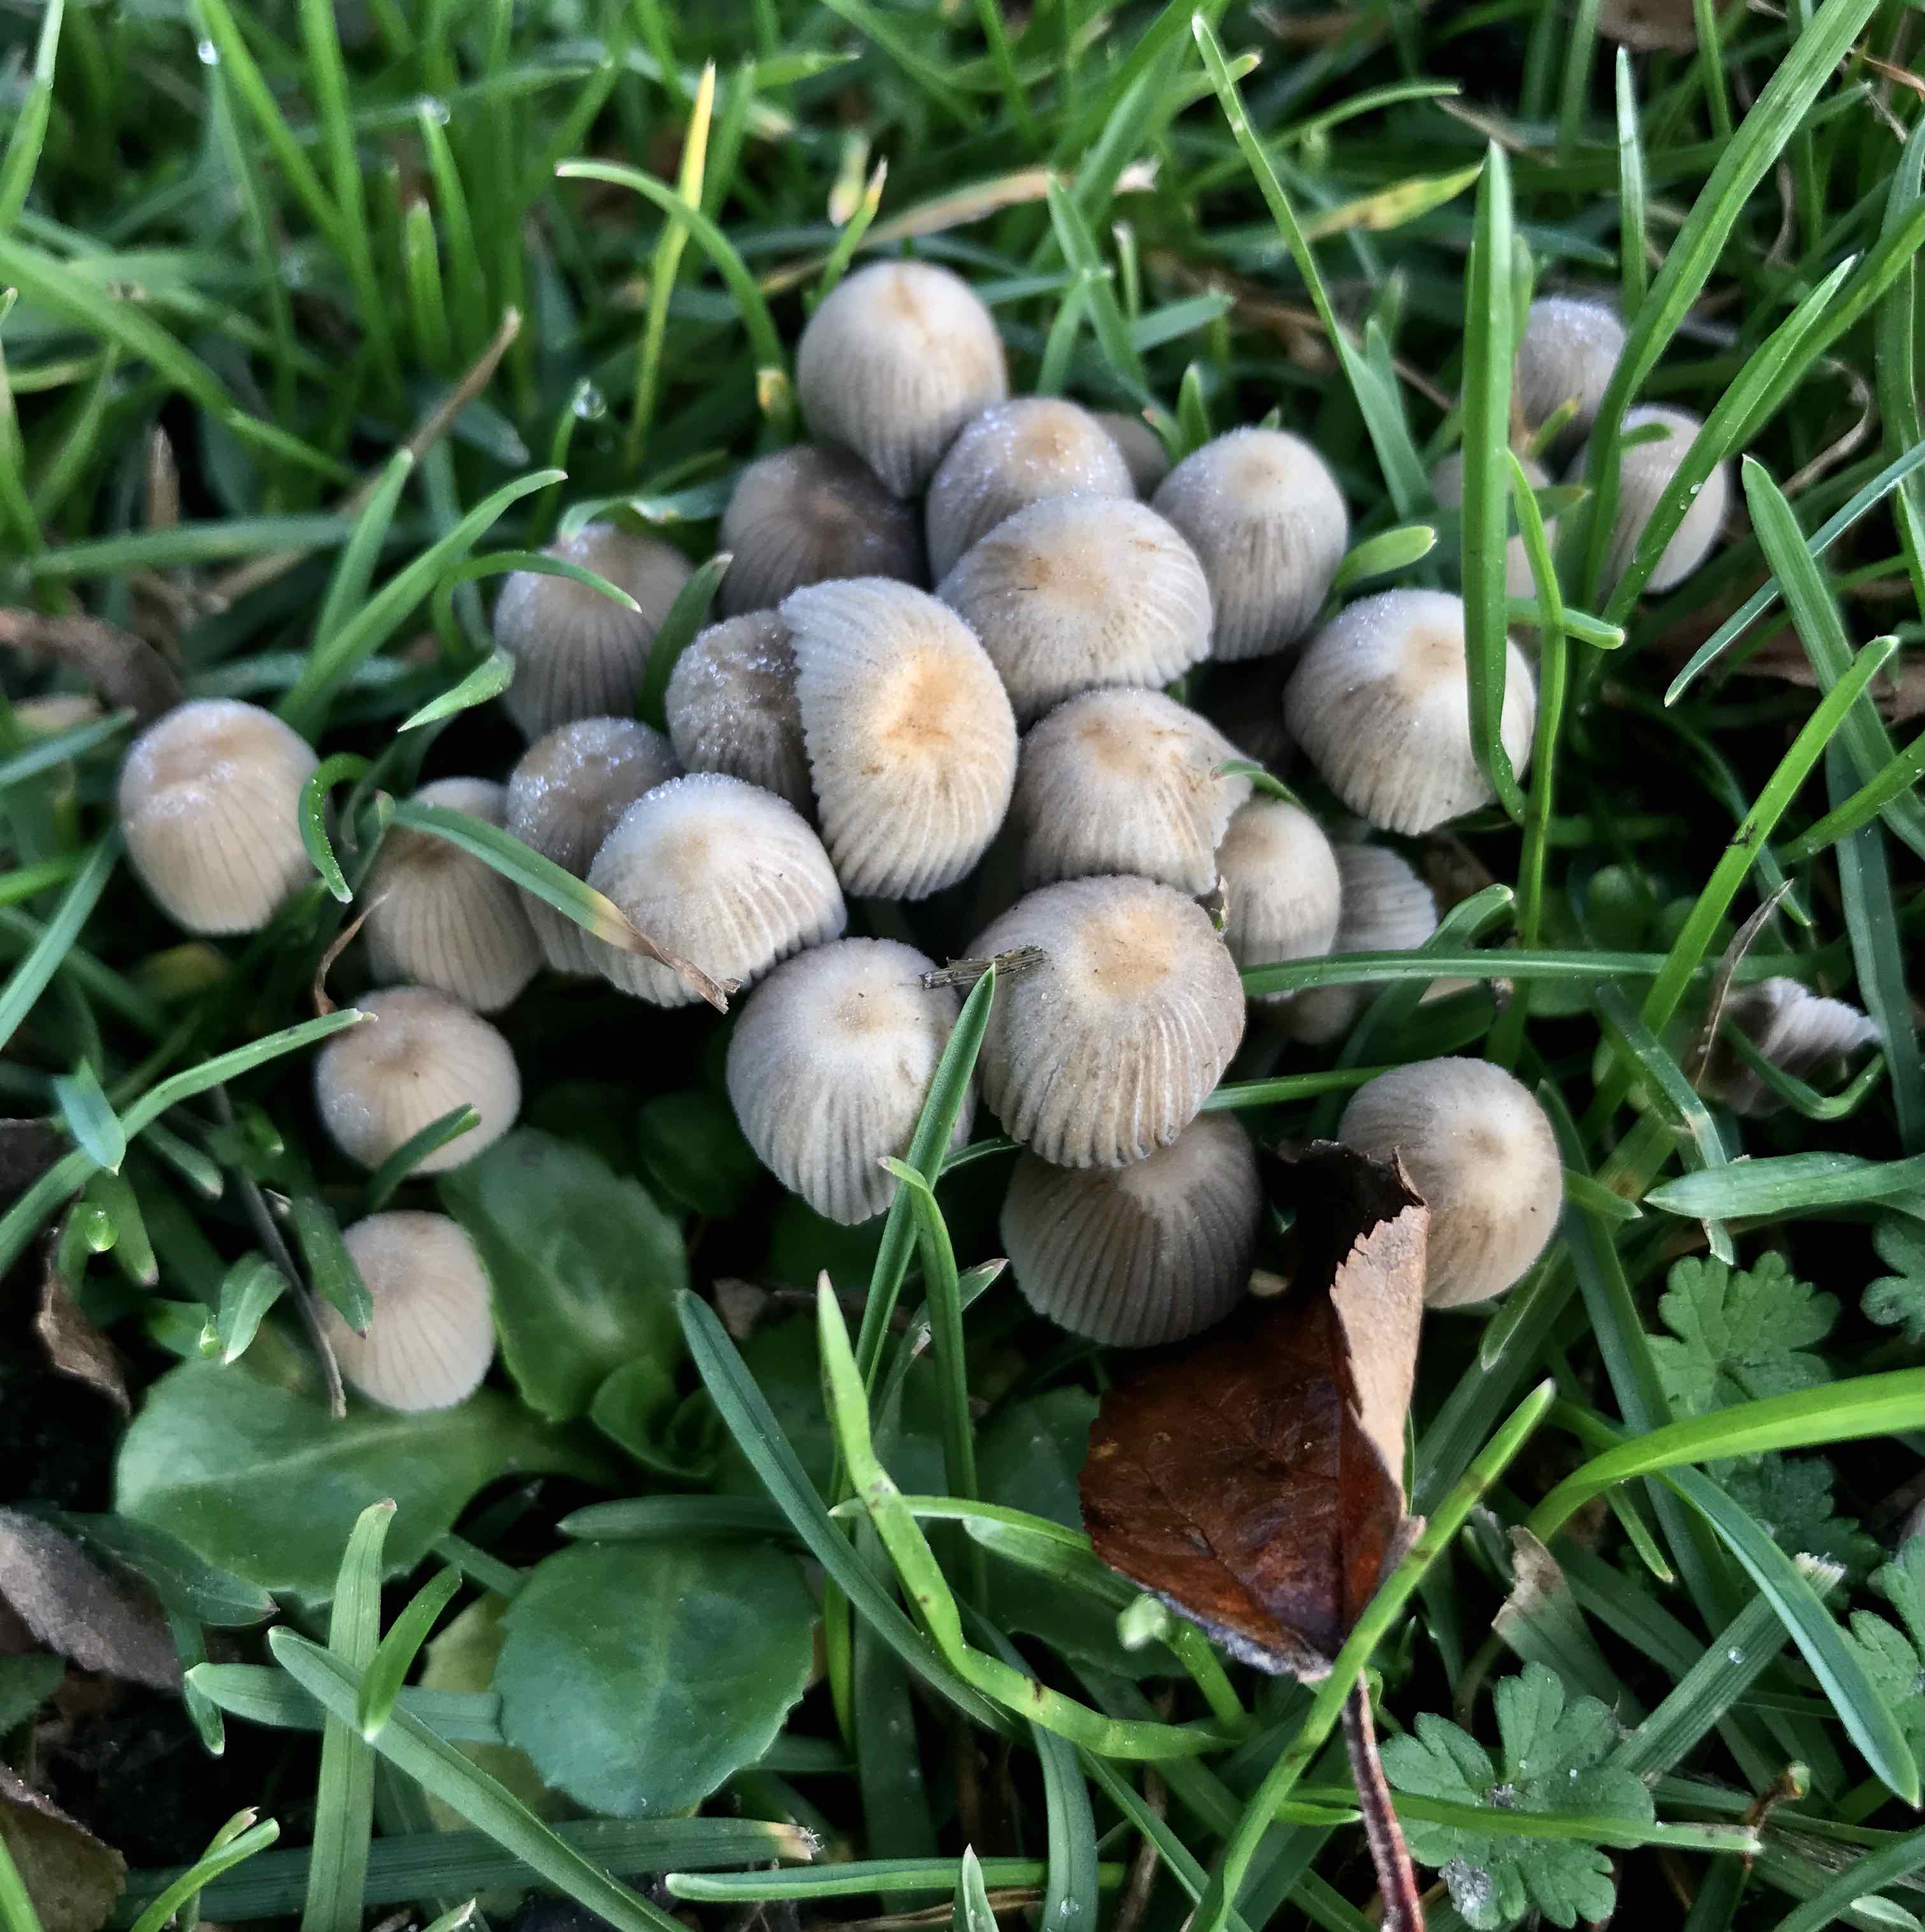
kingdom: Fungi
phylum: Basidiomycota
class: Agaricomycetes
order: Agaricales
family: Psathyrellaceae
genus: Coprinellus
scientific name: Coprinellus disseminatus
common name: bredsået blækhat
